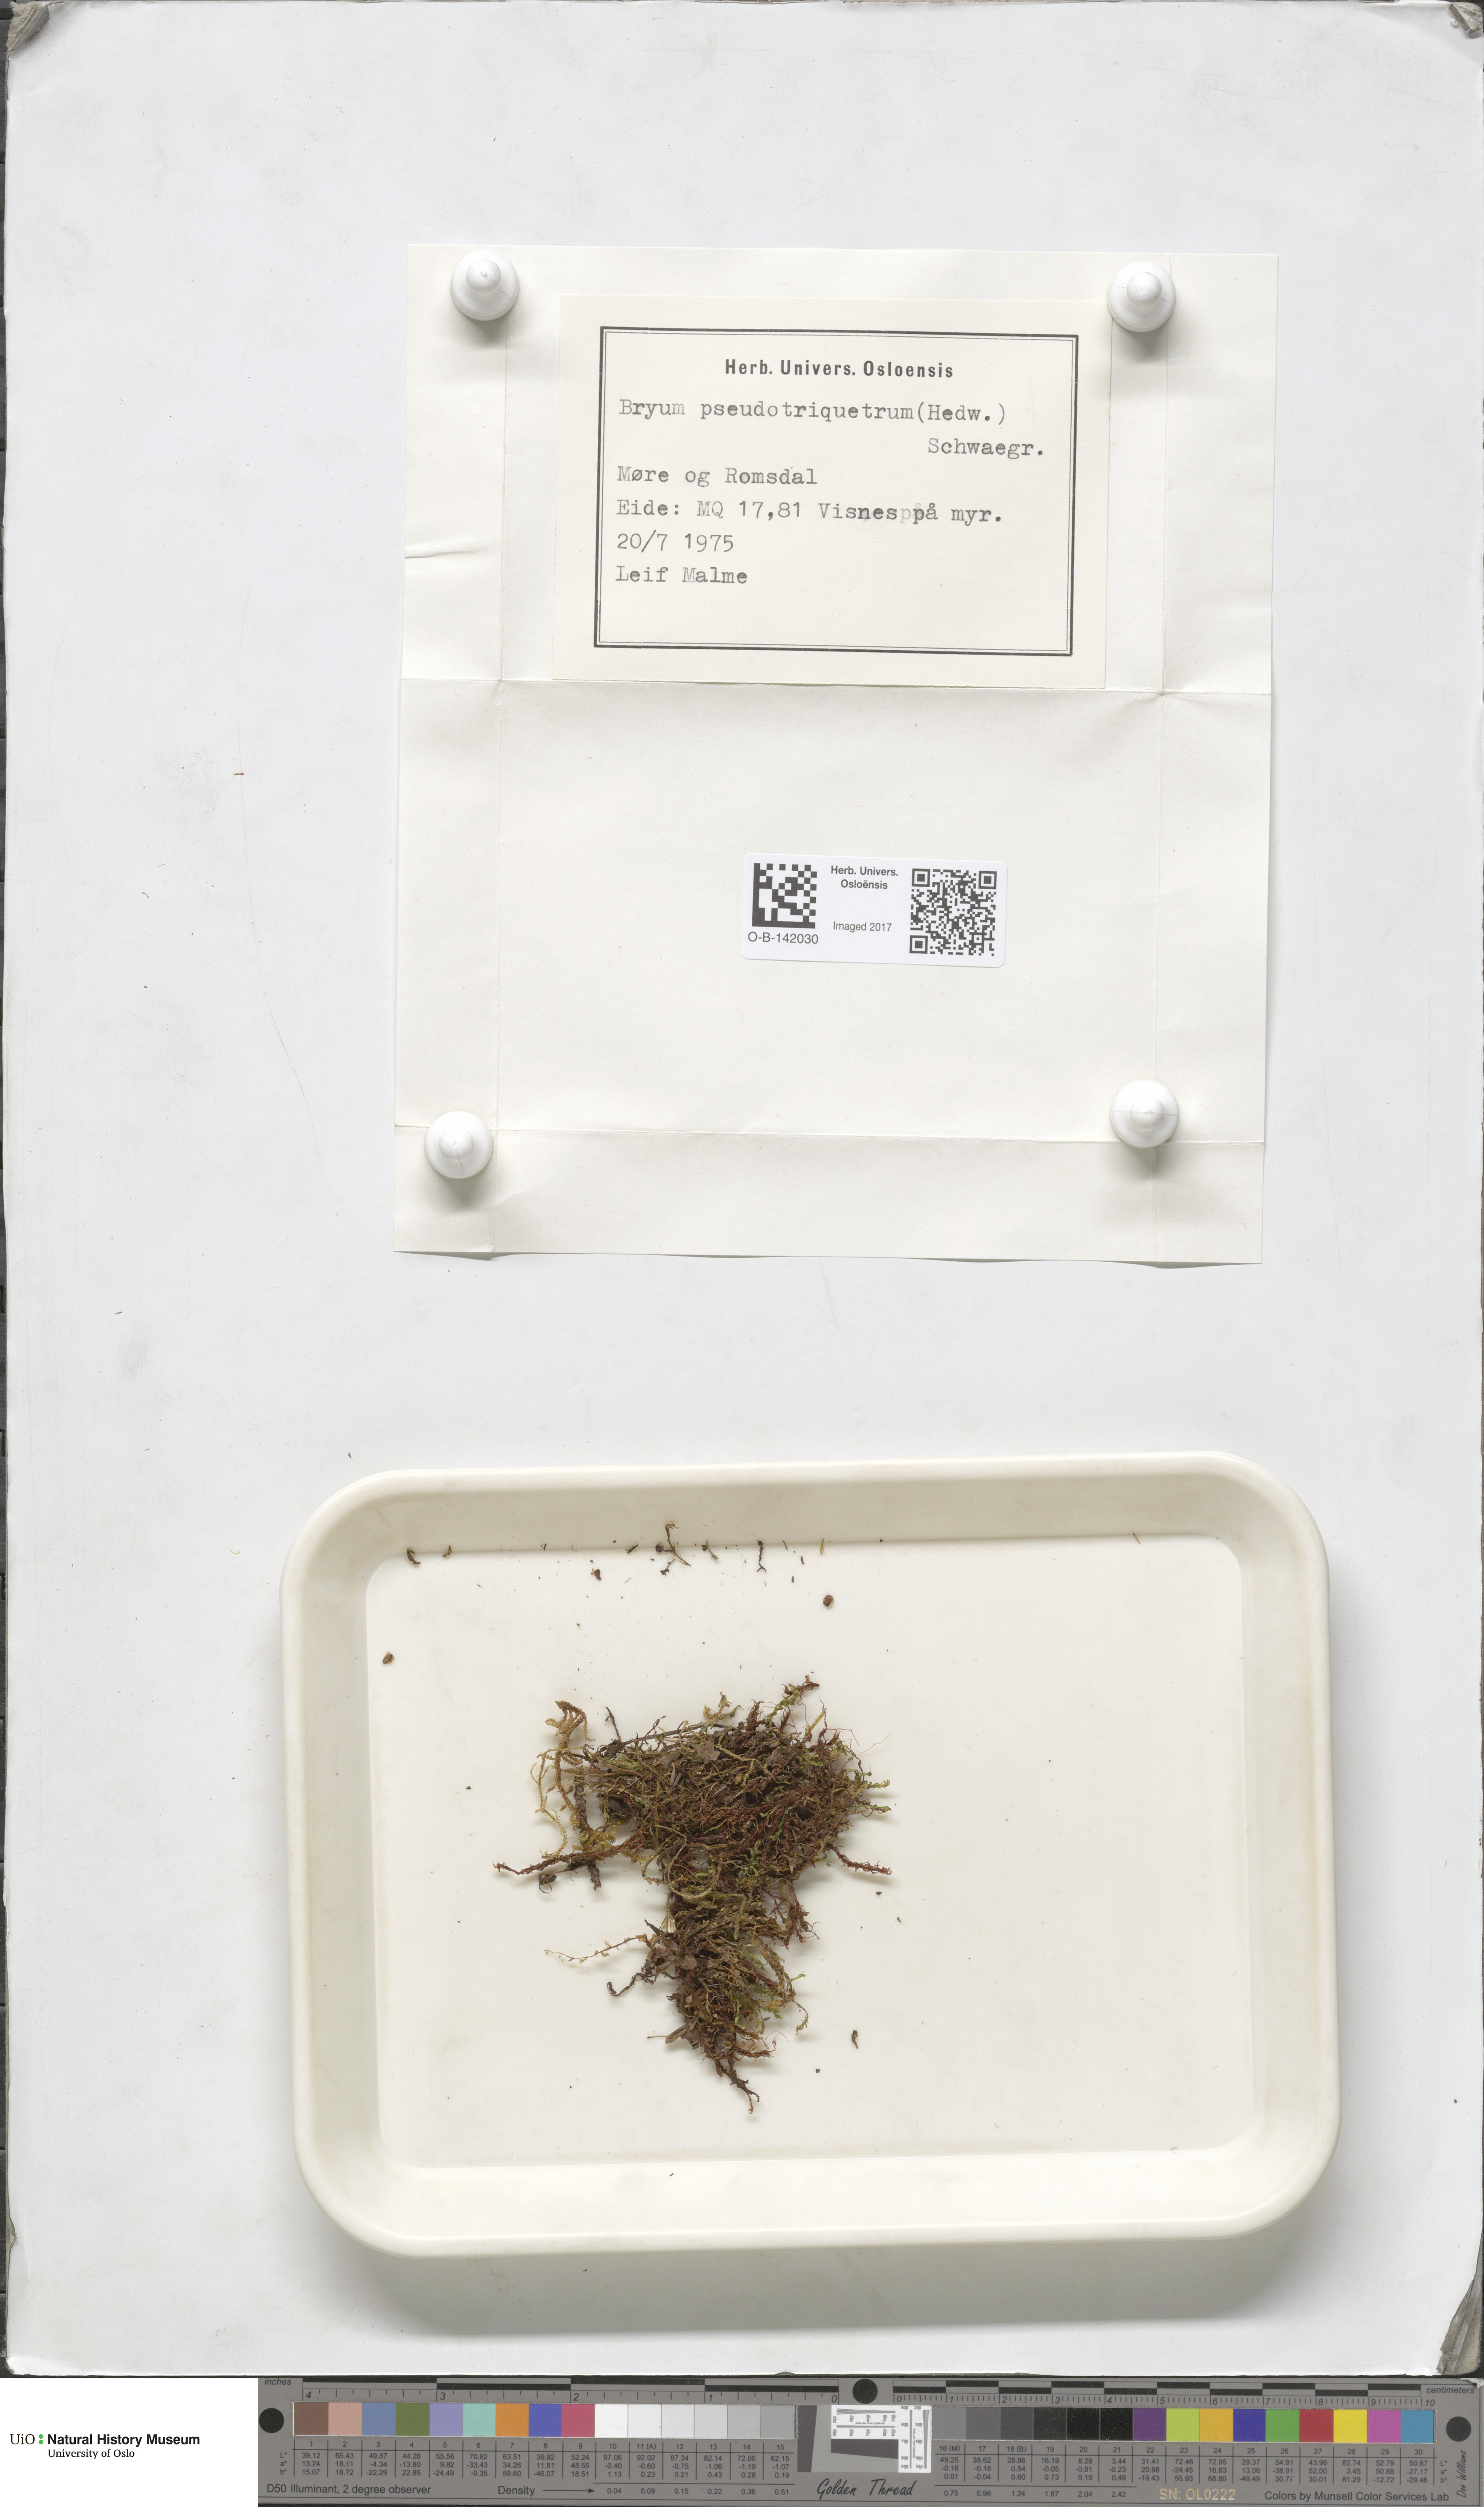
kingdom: Plantae
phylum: Bryophyta
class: Bryopsida
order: Bryales
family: Bryaceae
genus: Ptychostomum
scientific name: Ptychostomum pseudotriquetrum
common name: Long-leaved thread moss
